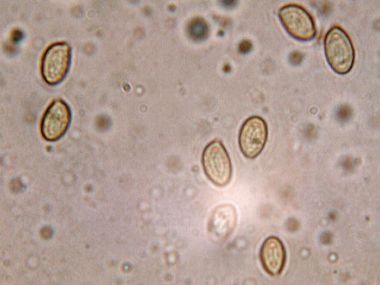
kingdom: Fungi
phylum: Basidiomycota
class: Agaricomycetes
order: Agaricales
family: Cortinariaceae
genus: Thaxterogaster
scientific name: Thaxterogaster leucoluteolus
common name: isabella slørhat
